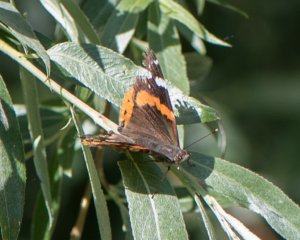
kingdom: Animalia
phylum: Arthropoda
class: Insecta
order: Lepidoptera
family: Nymphalidae
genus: Vanessa
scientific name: Vanessa atalanta
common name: Red Admiral
